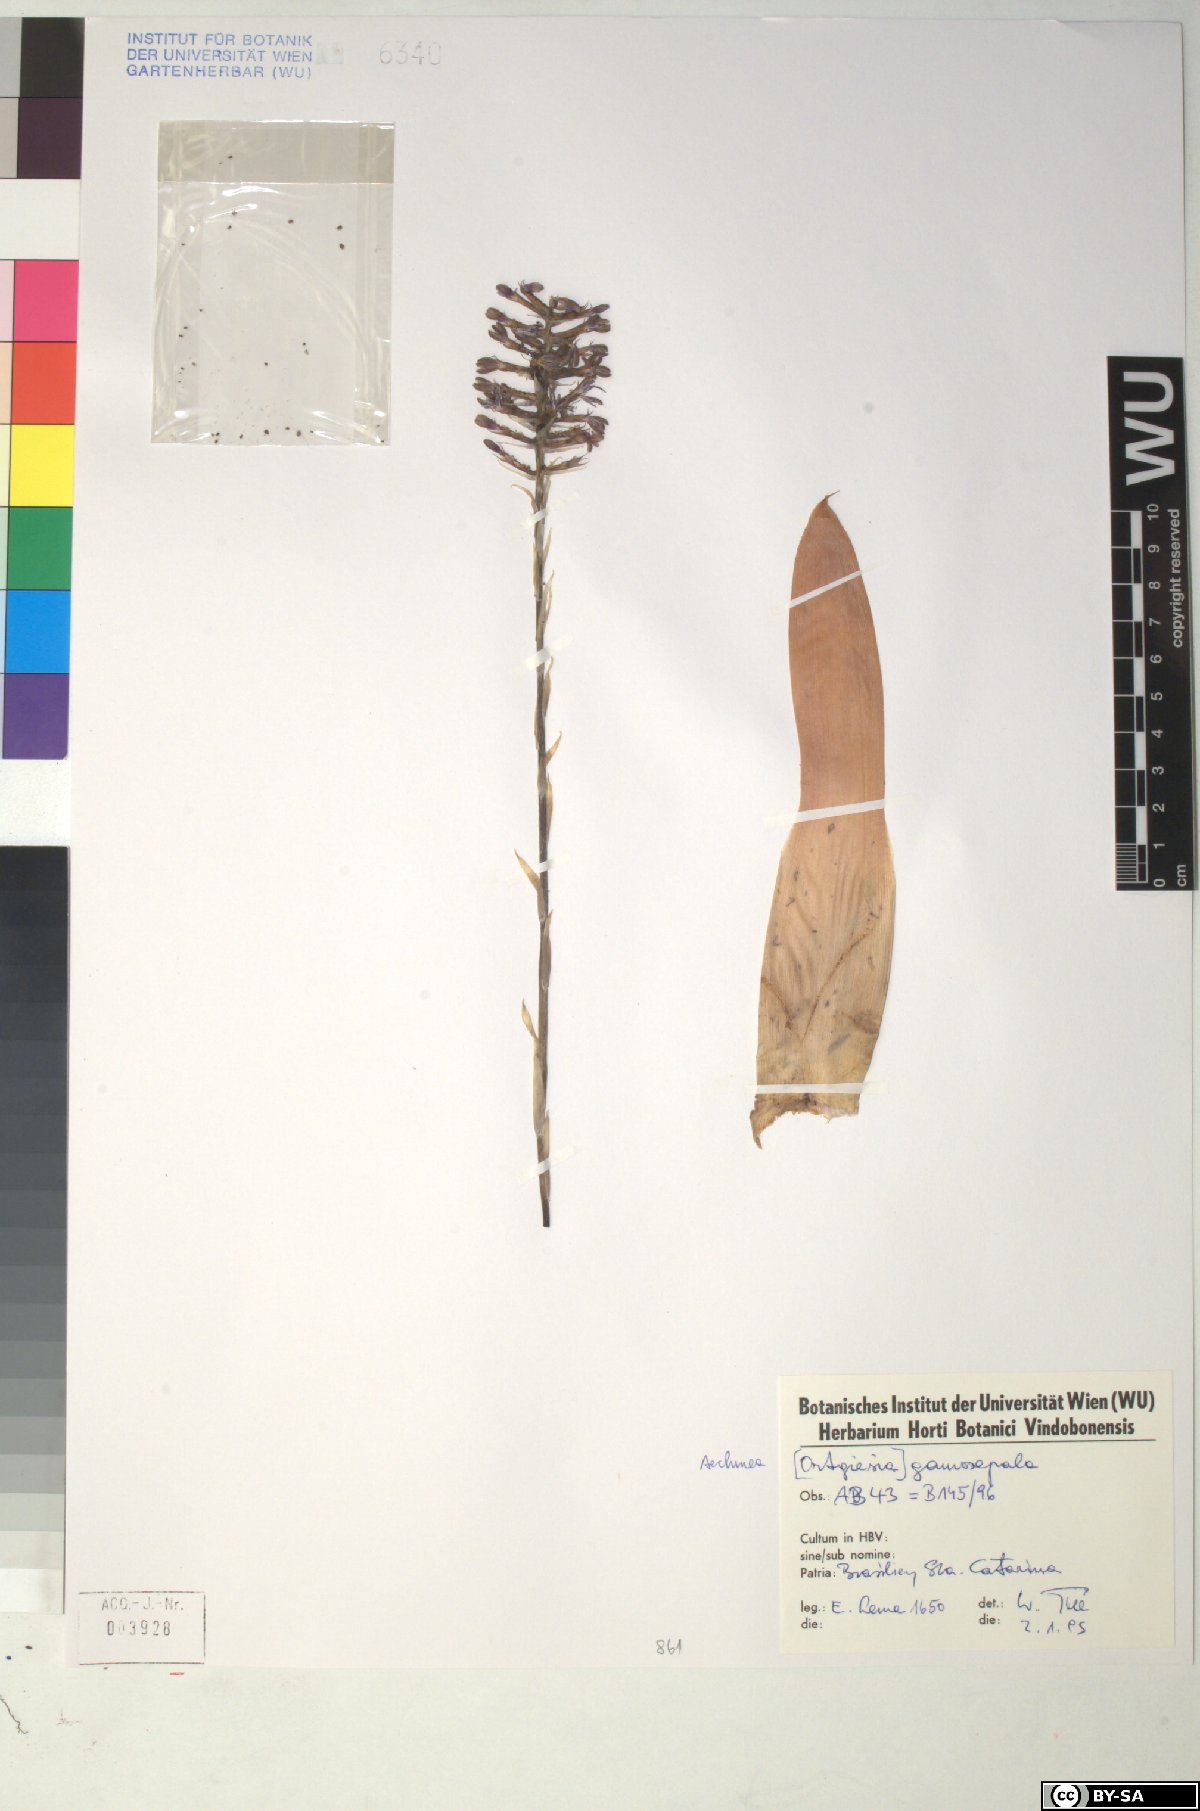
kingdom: Plantae
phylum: Tracheophyta
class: Liliopsida
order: Poales
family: Bromeliaceae
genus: Aechmea
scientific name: Aechmea gamosepala
